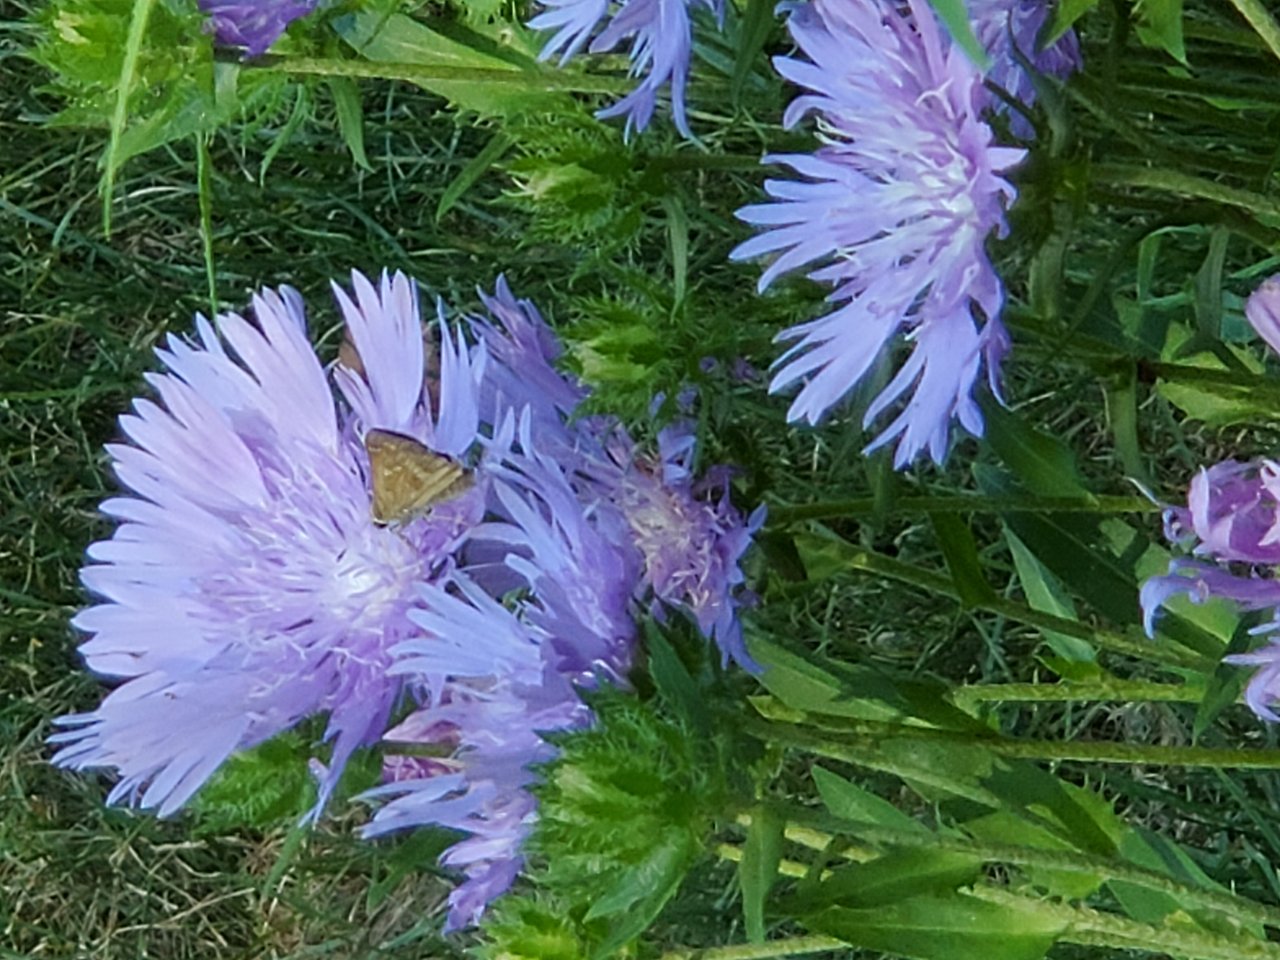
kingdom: Animalia
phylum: Arthropoda
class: Insecta
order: Lepidoptera
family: Hesperiidae
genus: Atalopedes
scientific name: Atalopedes campestris
